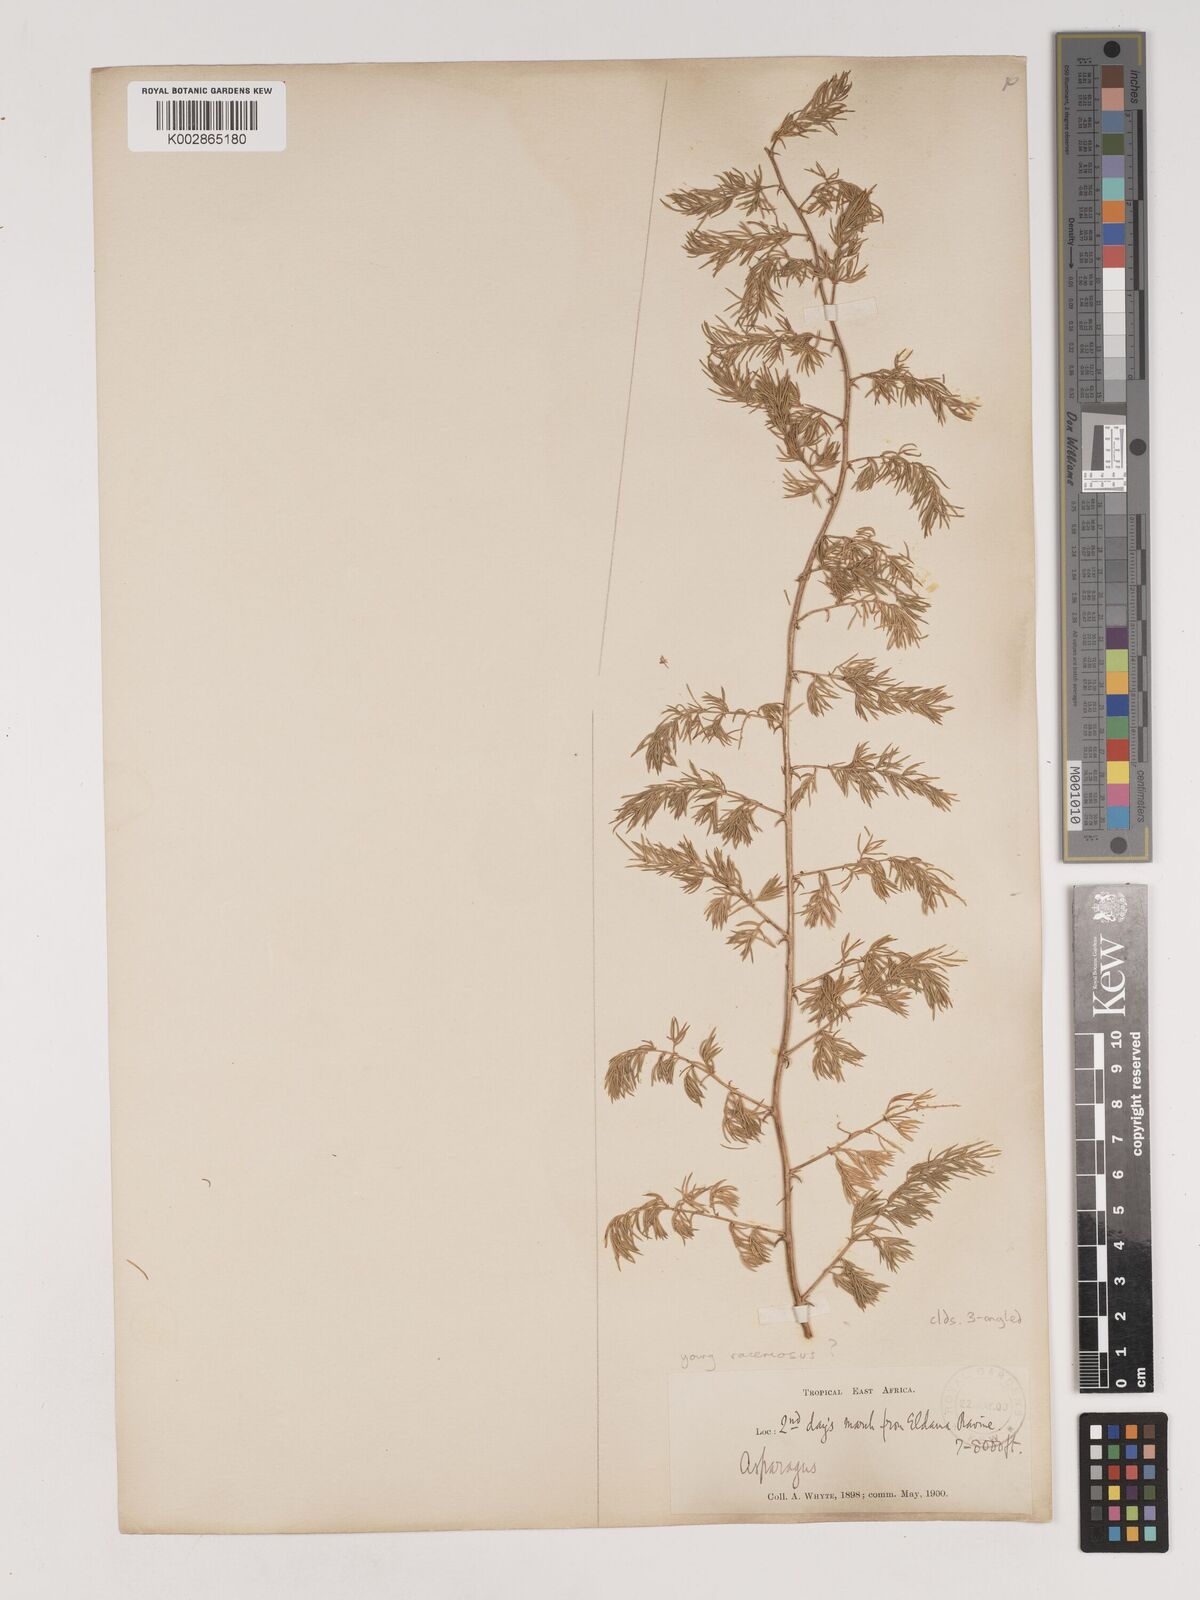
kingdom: Plantae
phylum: Tracheophyta
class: Liliopsida
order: Asparagales
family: Asparagaceae
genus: Asparagus
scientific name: Asparagus
